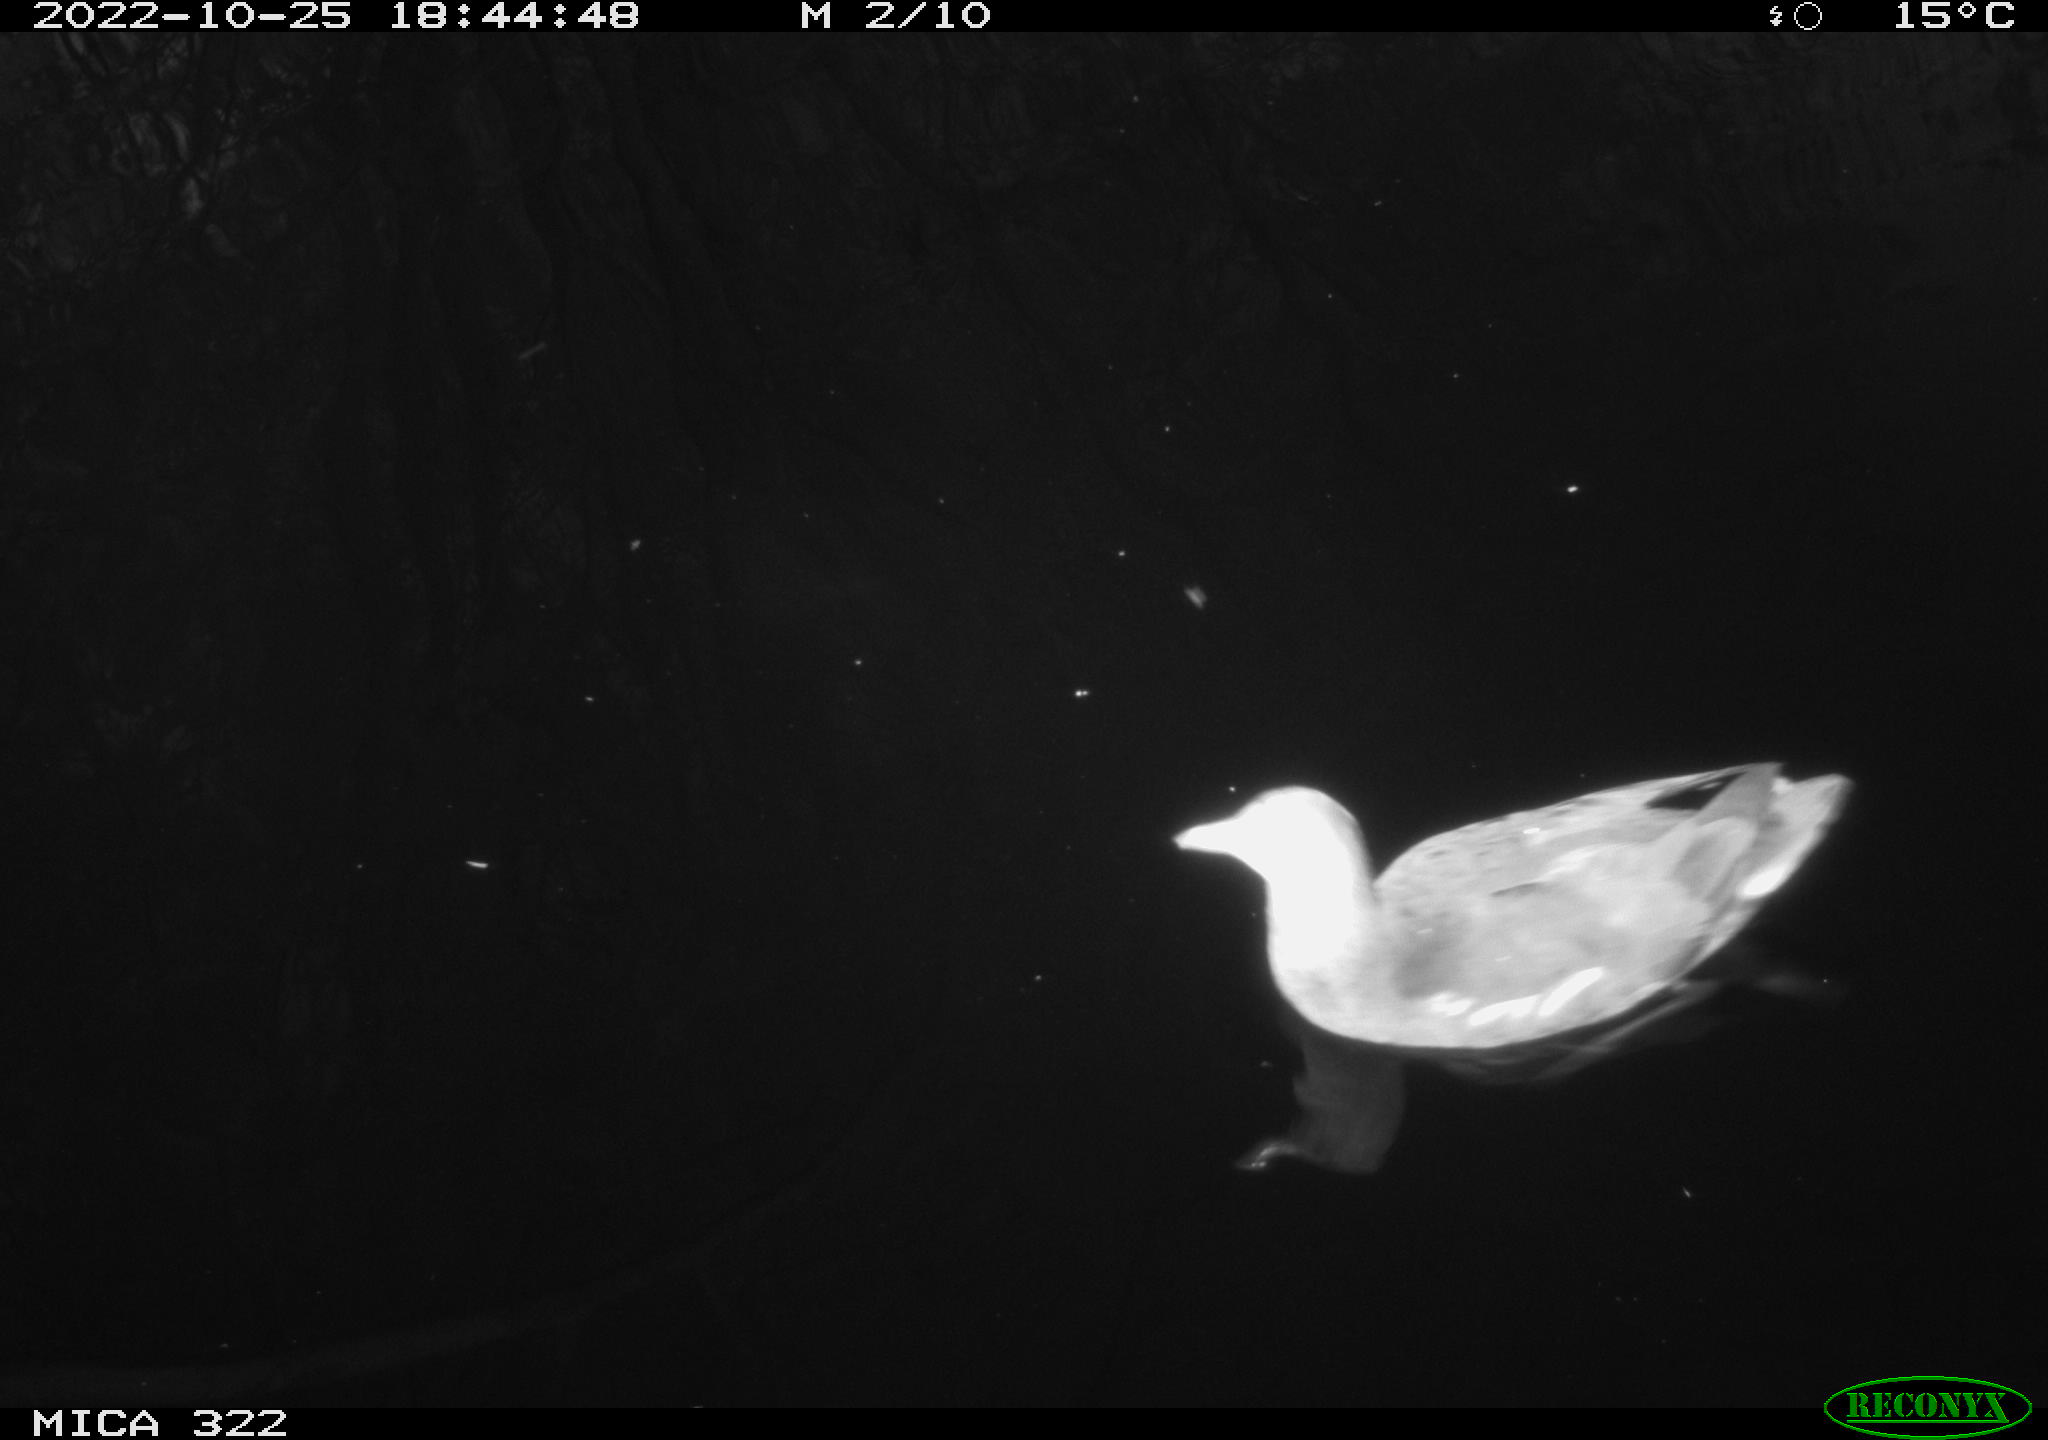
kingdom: Animalia
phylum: Chordata
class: Aves
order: Gruiformes
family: Rallidae
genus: Gallinula
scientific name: Gallinula chloropus
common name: Common moorhen
